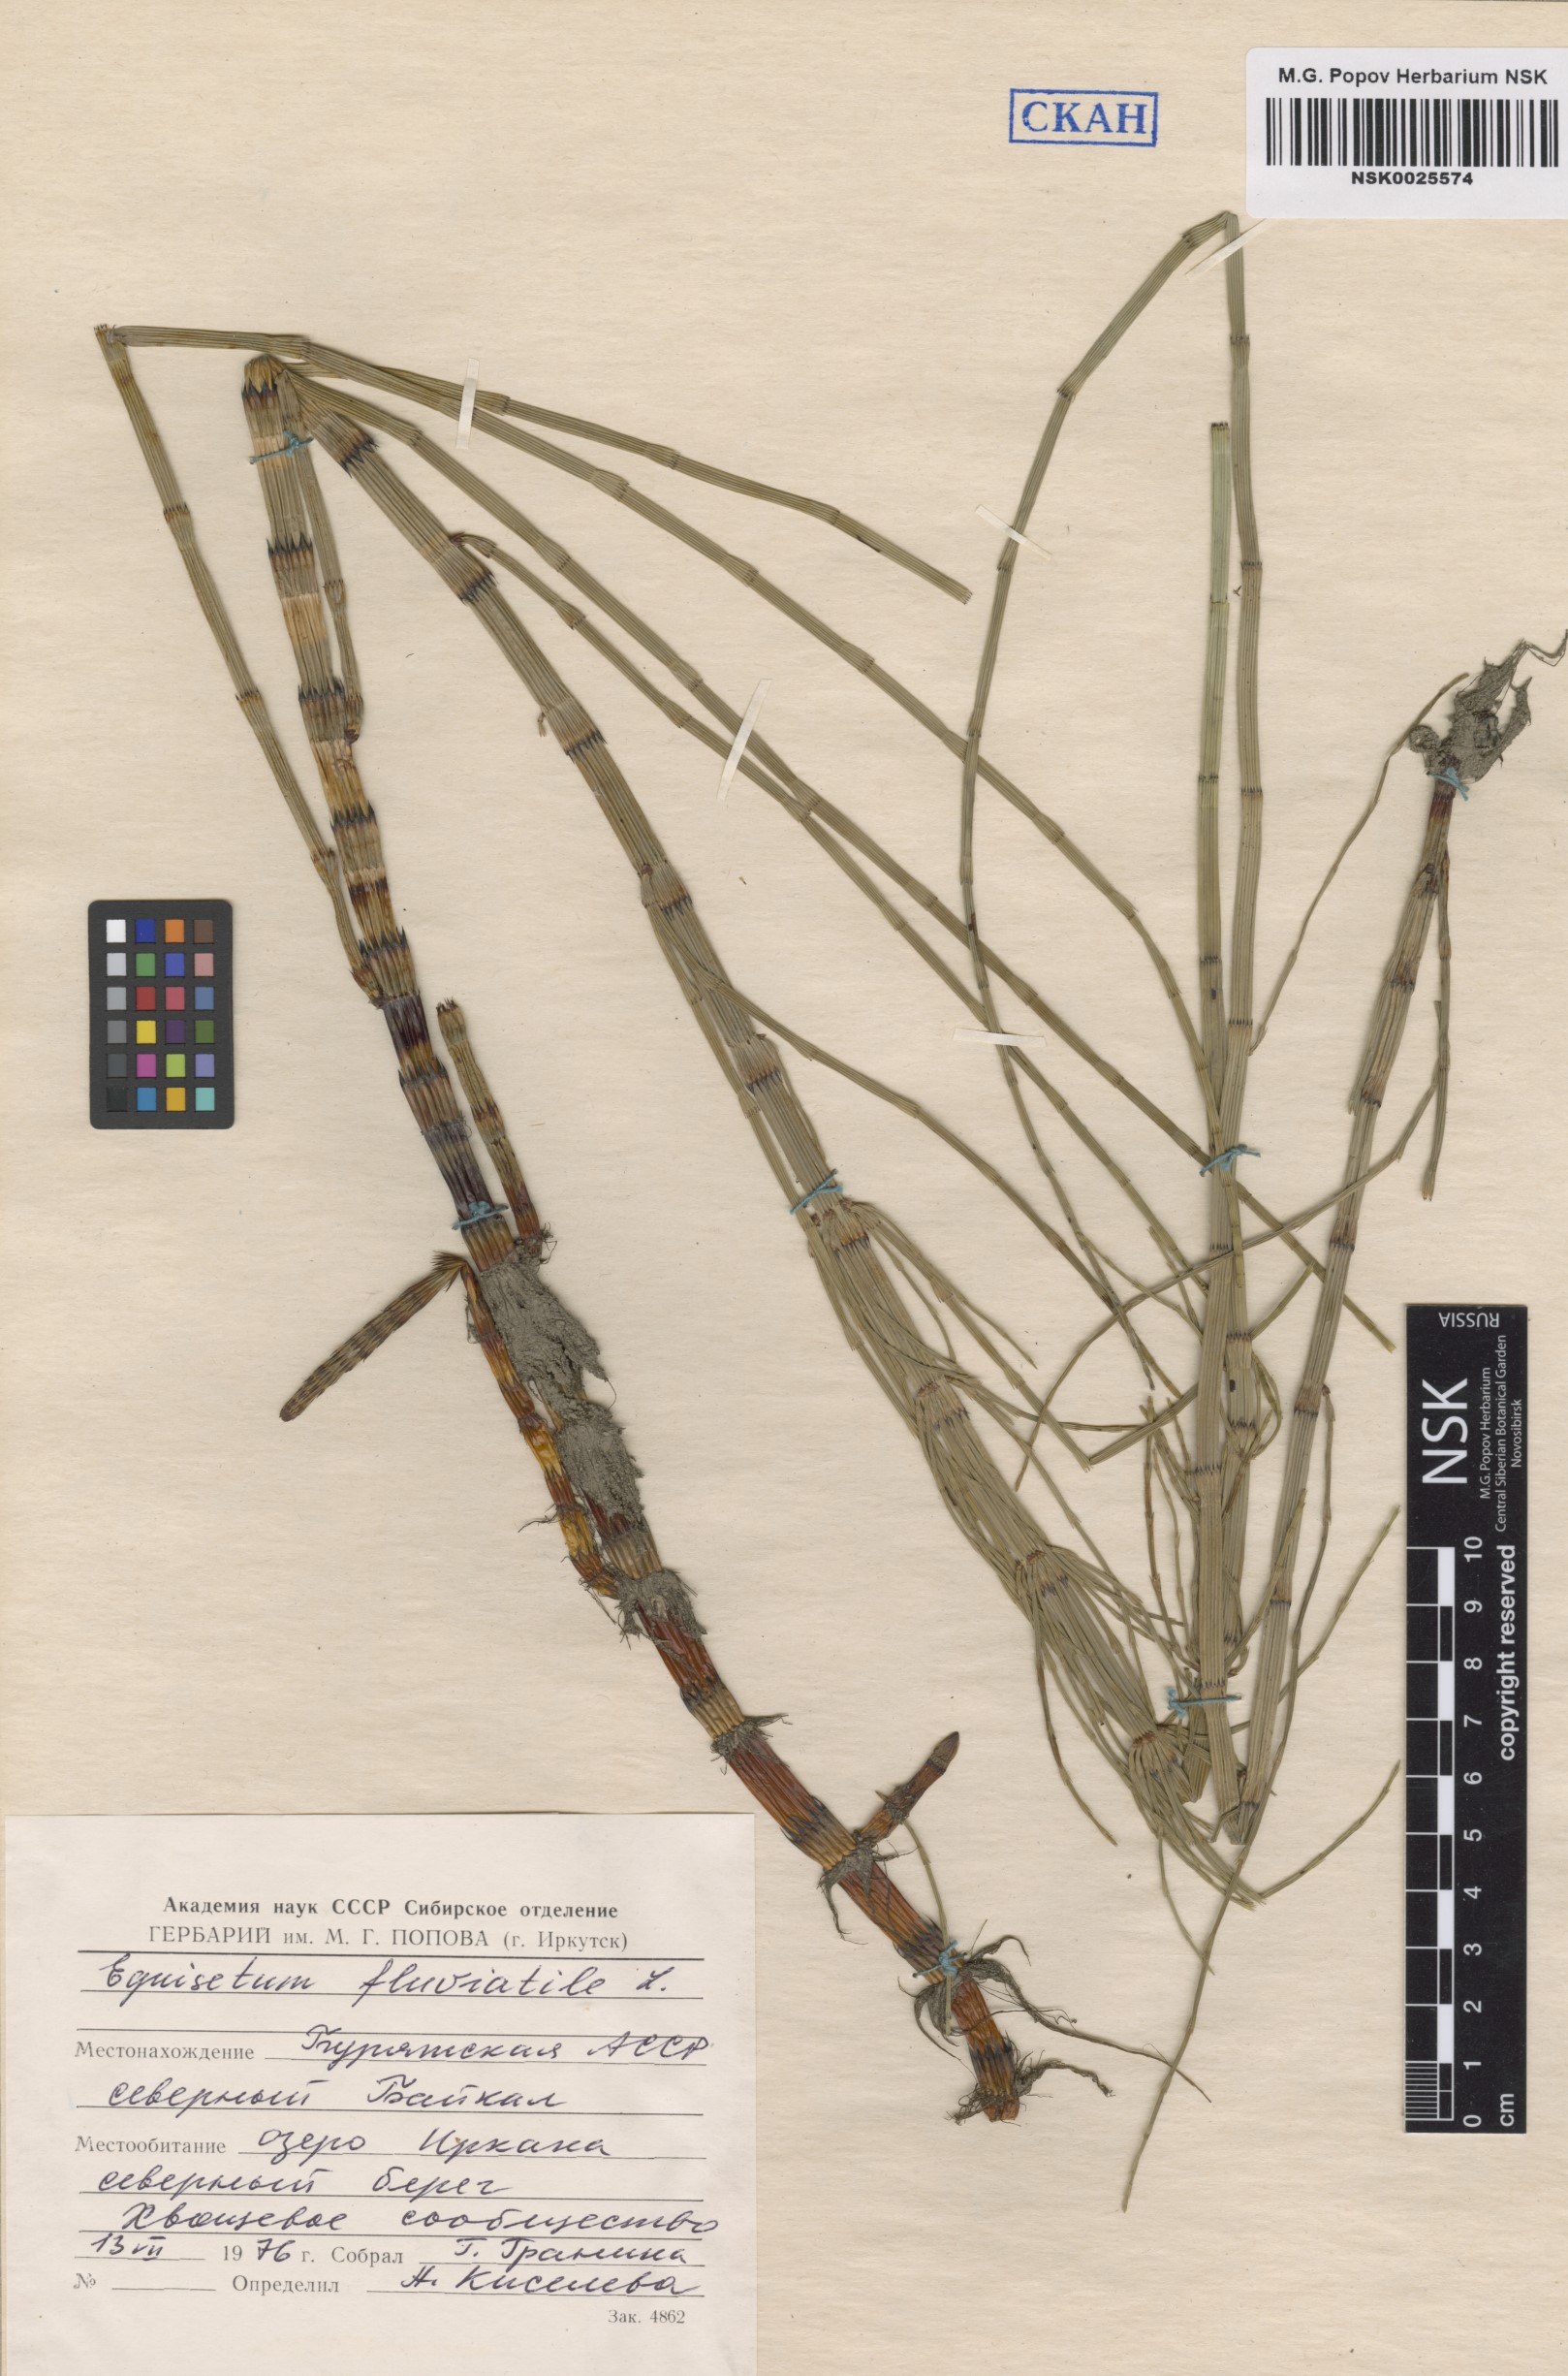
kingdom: Plantae
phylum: Tracheophyta
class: Polypodiopsida
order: Equisetales
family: Equisetaceae
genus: Equisetum
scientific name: Equisetum fluviatile
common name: Water horsetail
